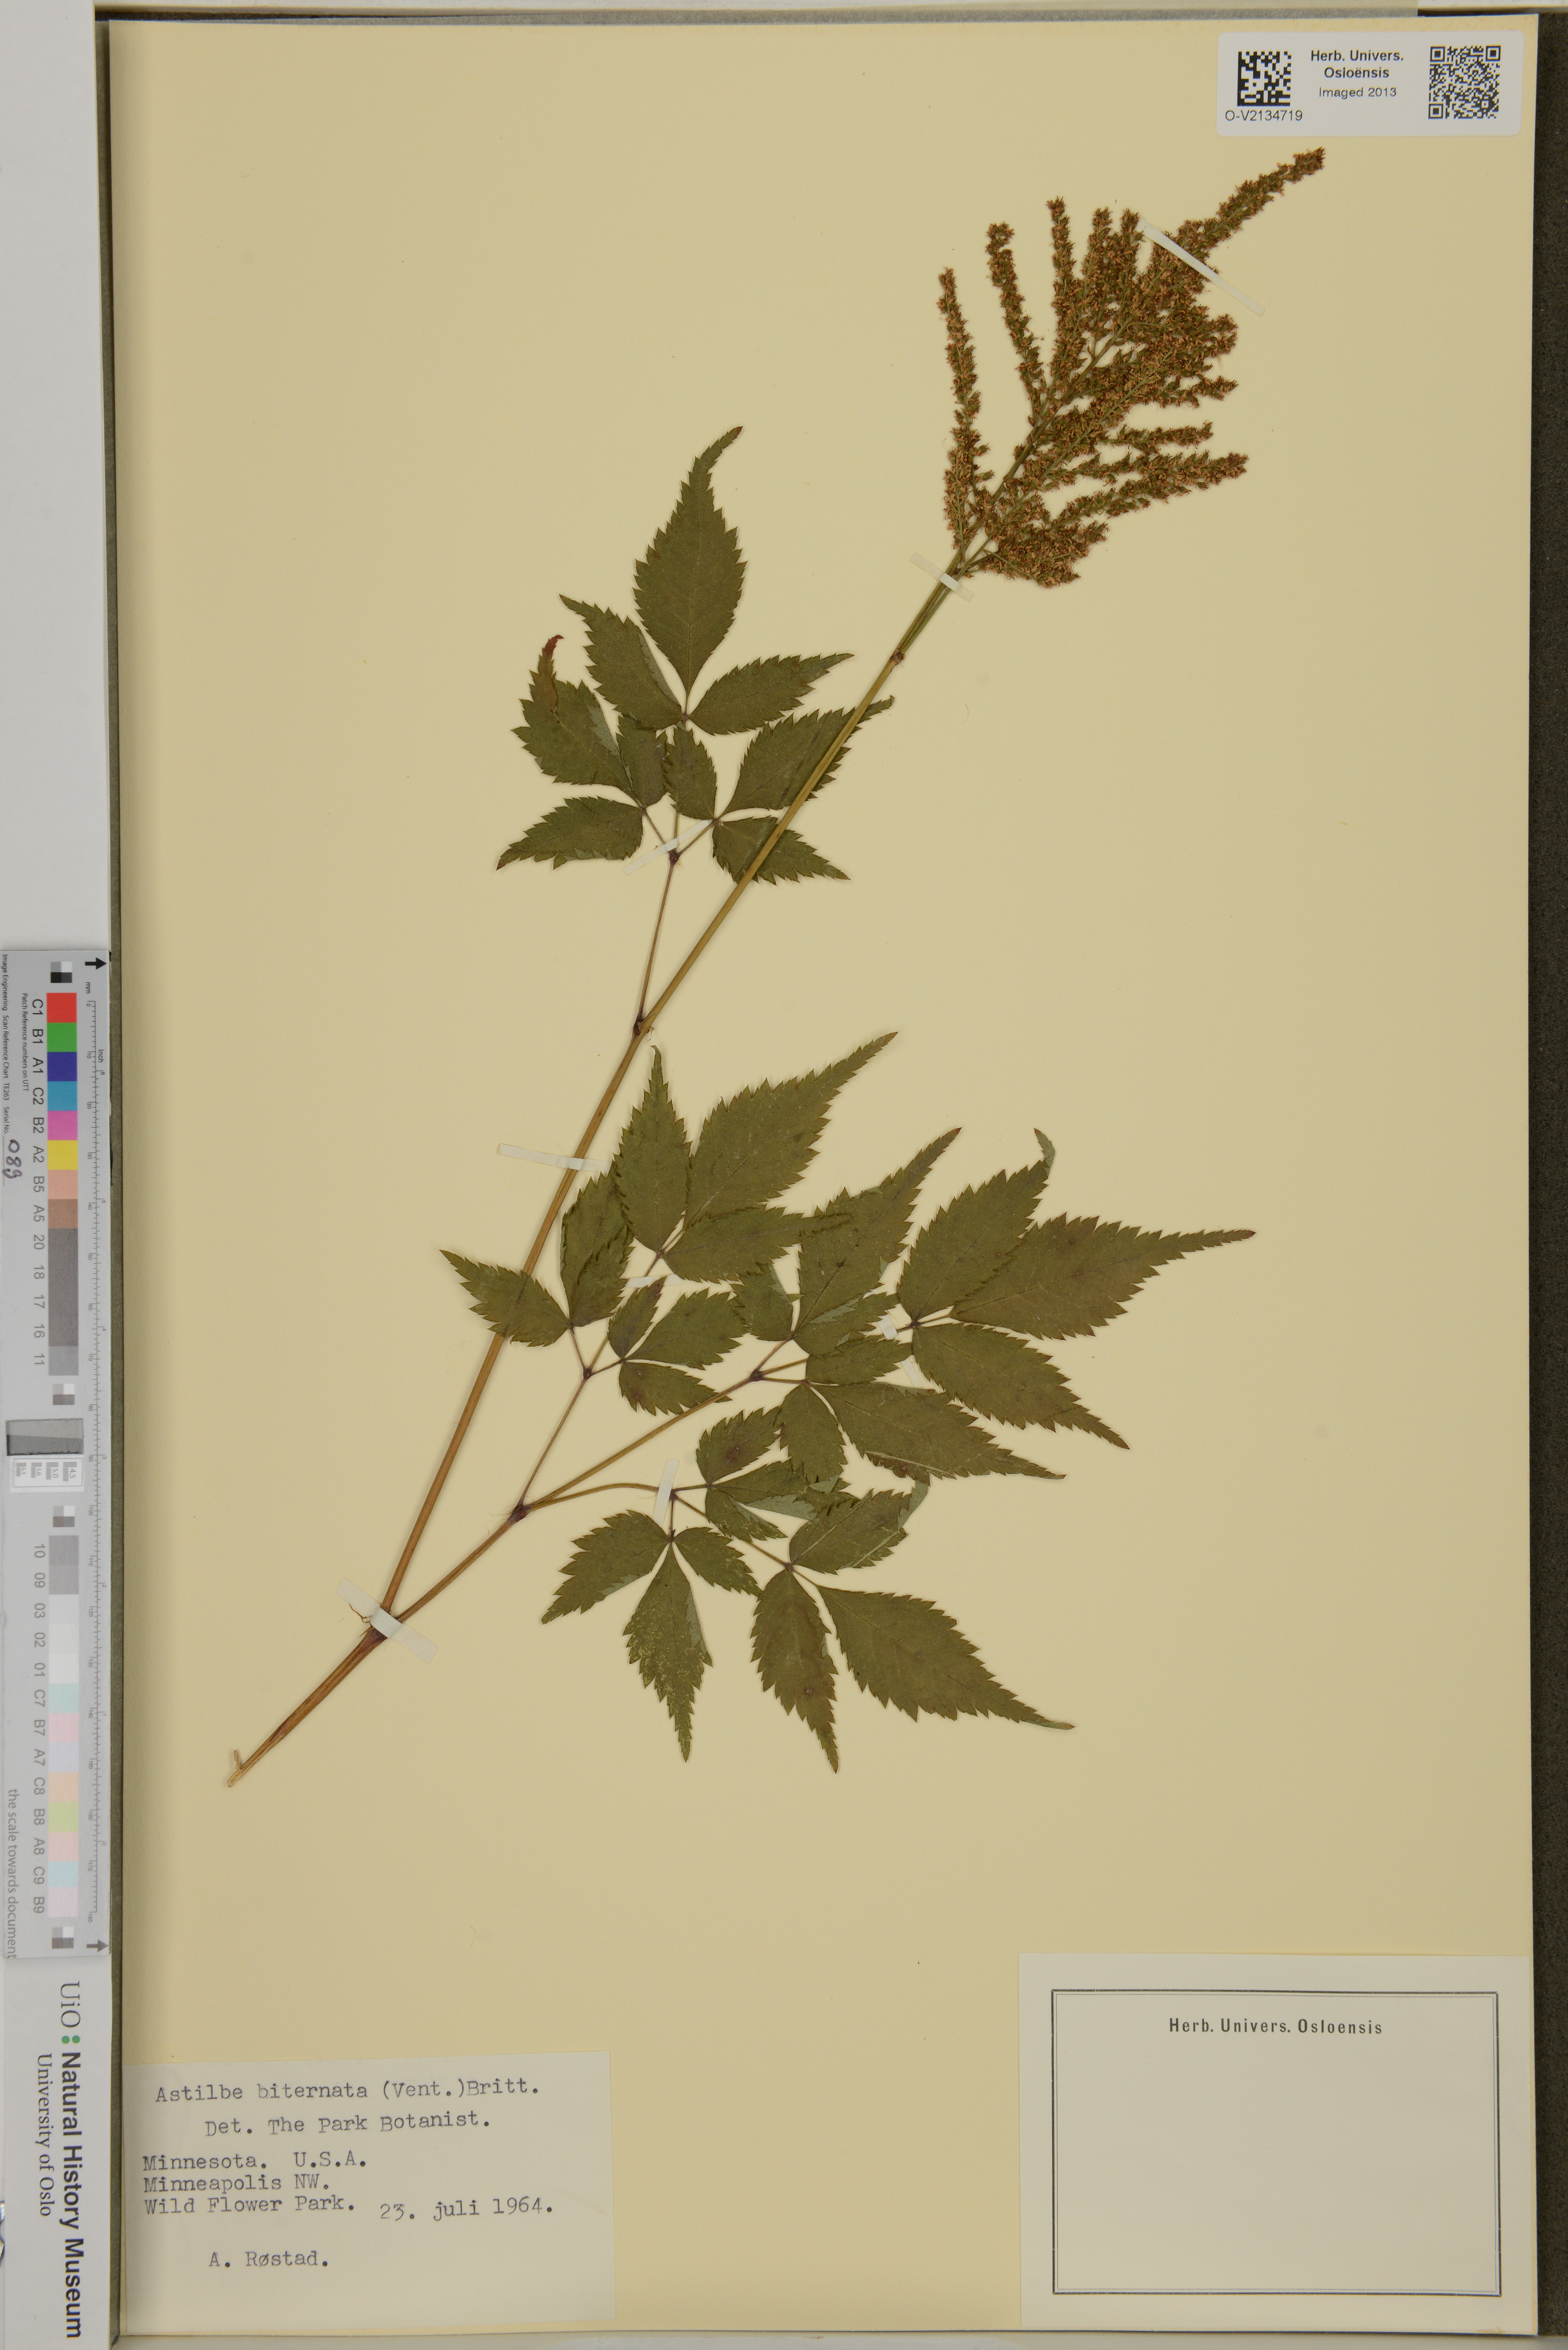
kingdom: Plantae
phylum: Tracheophyta
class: Magnoliopsida
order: Saxifragales
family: Saxifragaceae
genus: Astilbe
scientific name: Astilbe biternata
